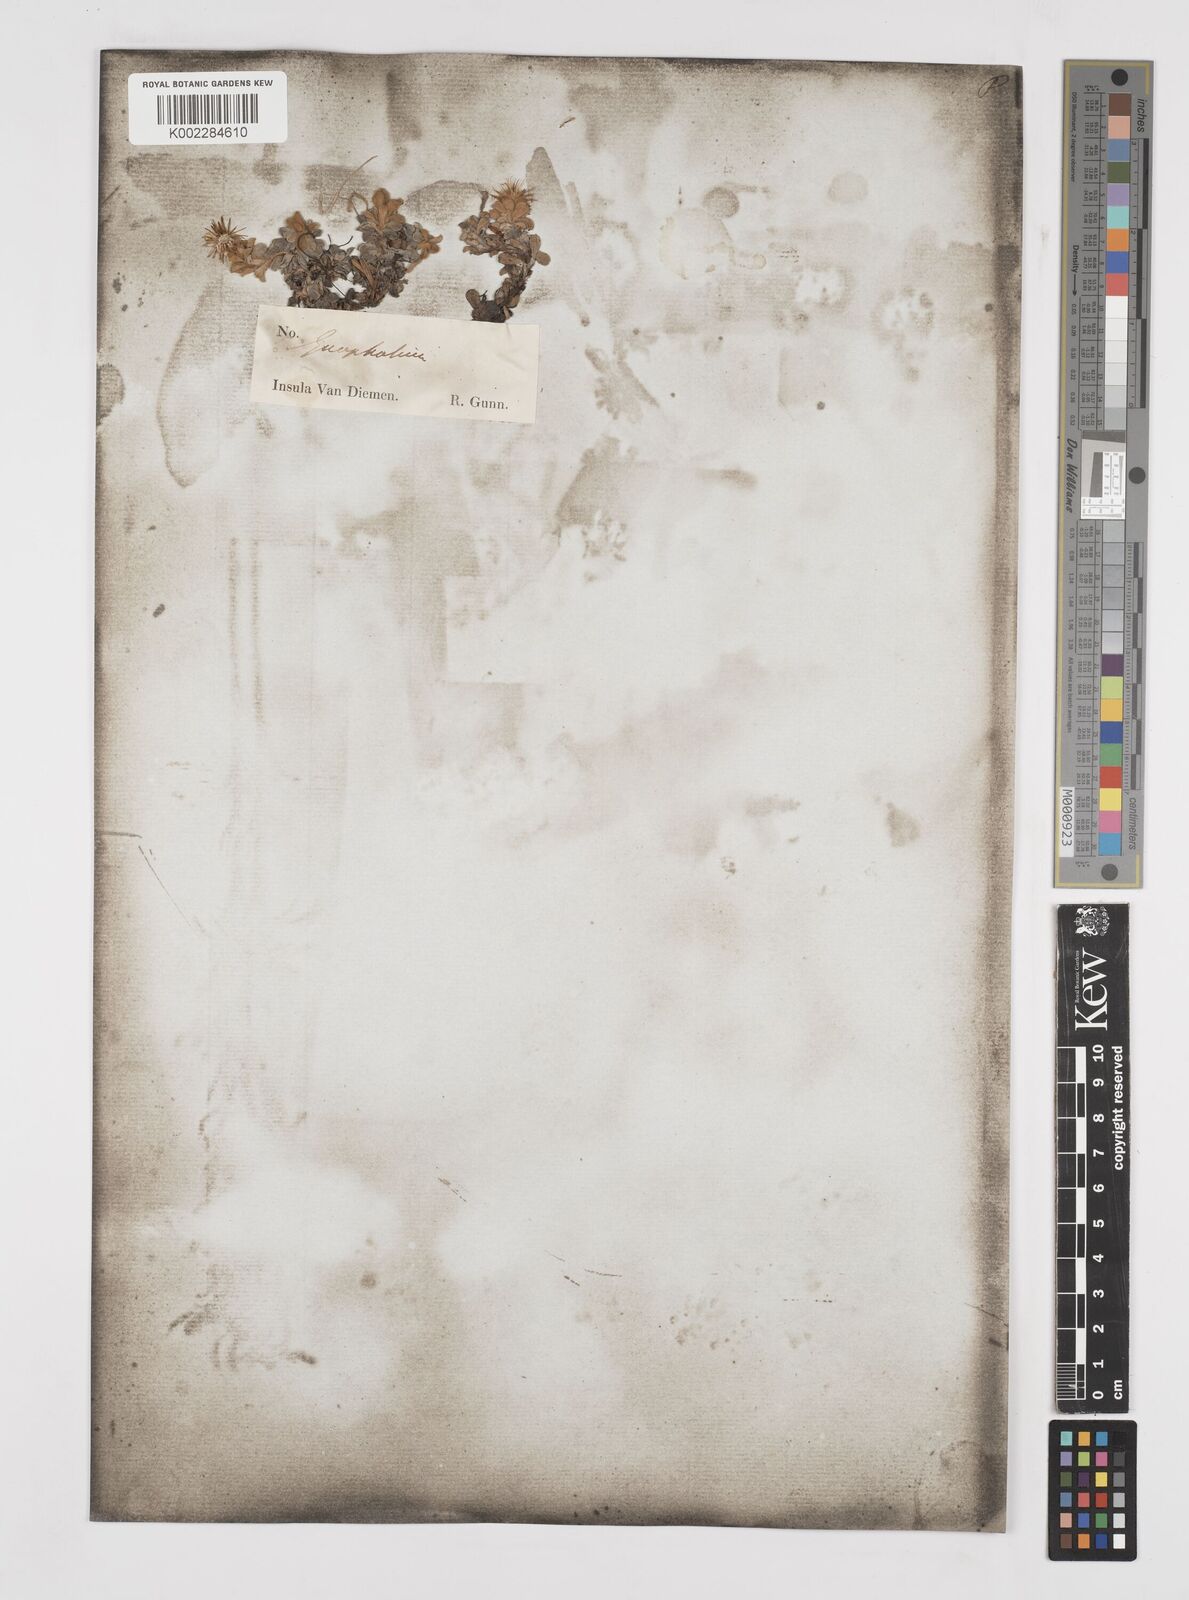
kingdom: Plantae
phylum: Tracheophyta
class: Magnoliopsida
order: Asterales
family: Asteraceae
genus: Ewartia
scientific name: Ewartia planchonii
